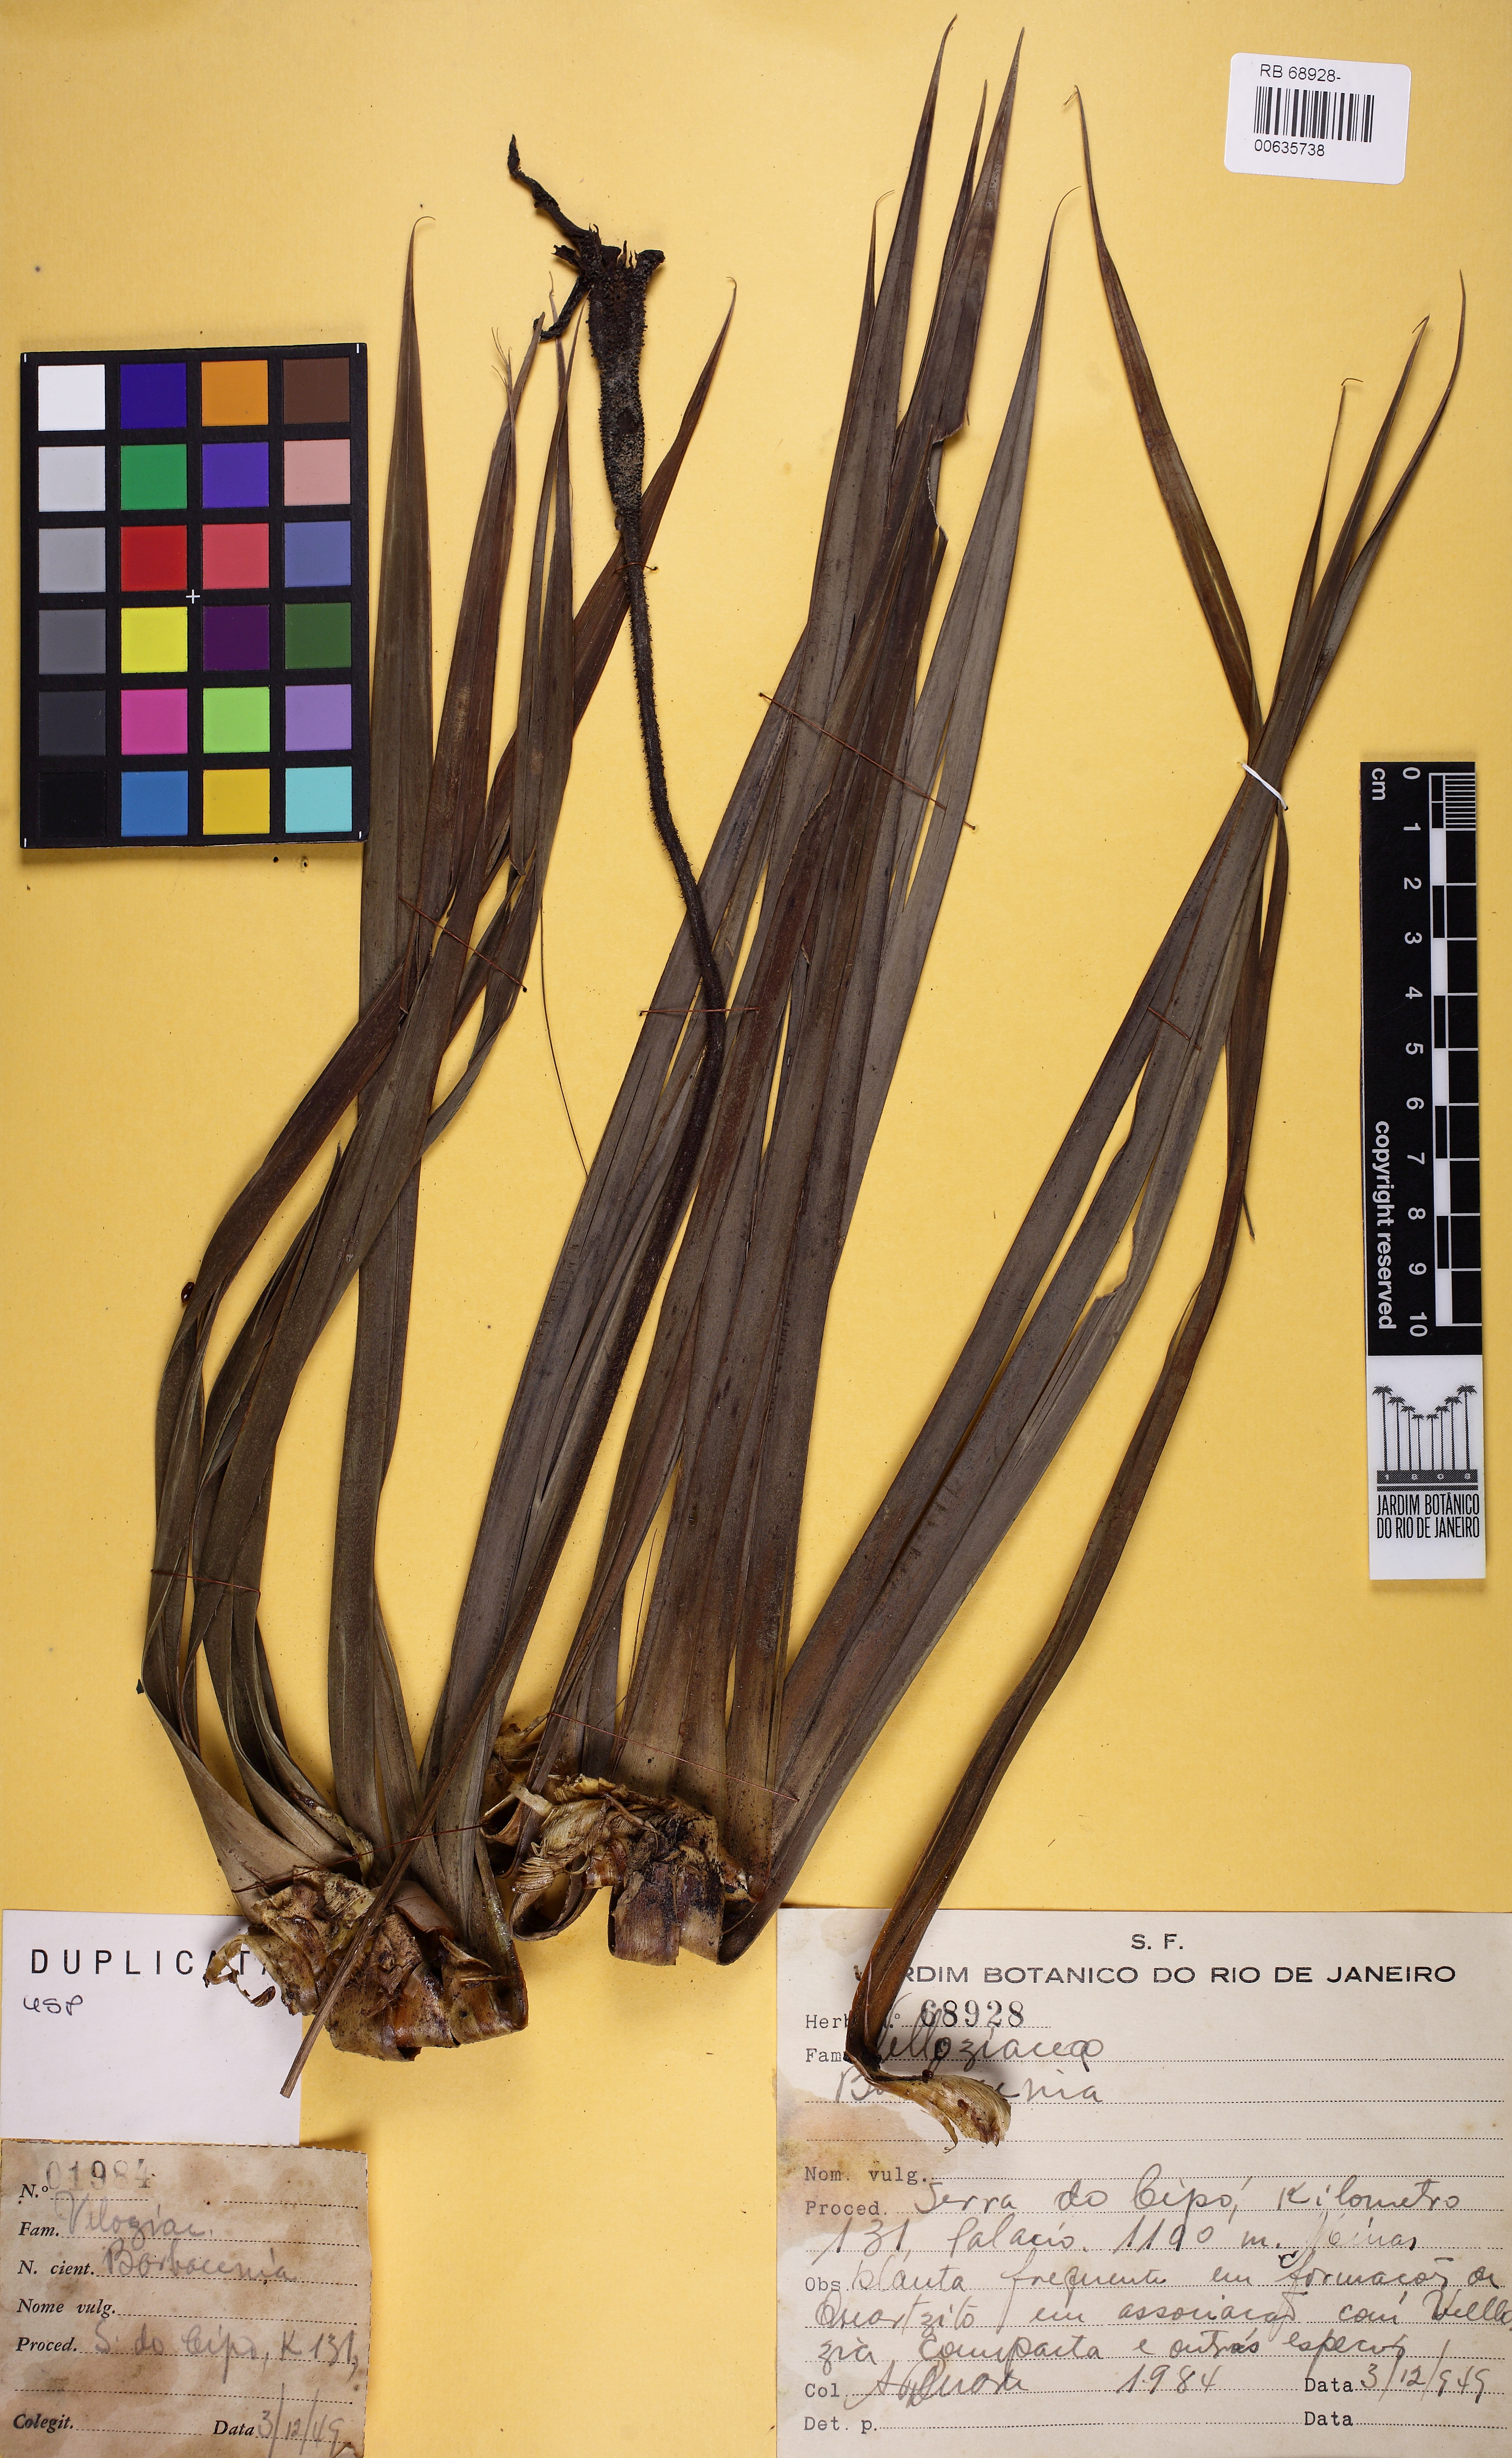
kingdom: Plantae
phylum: Tracheophyta
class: Liliopsida
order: Pandanales
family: Velloziaceae
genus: Barbacenia
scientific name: Barbacenia
